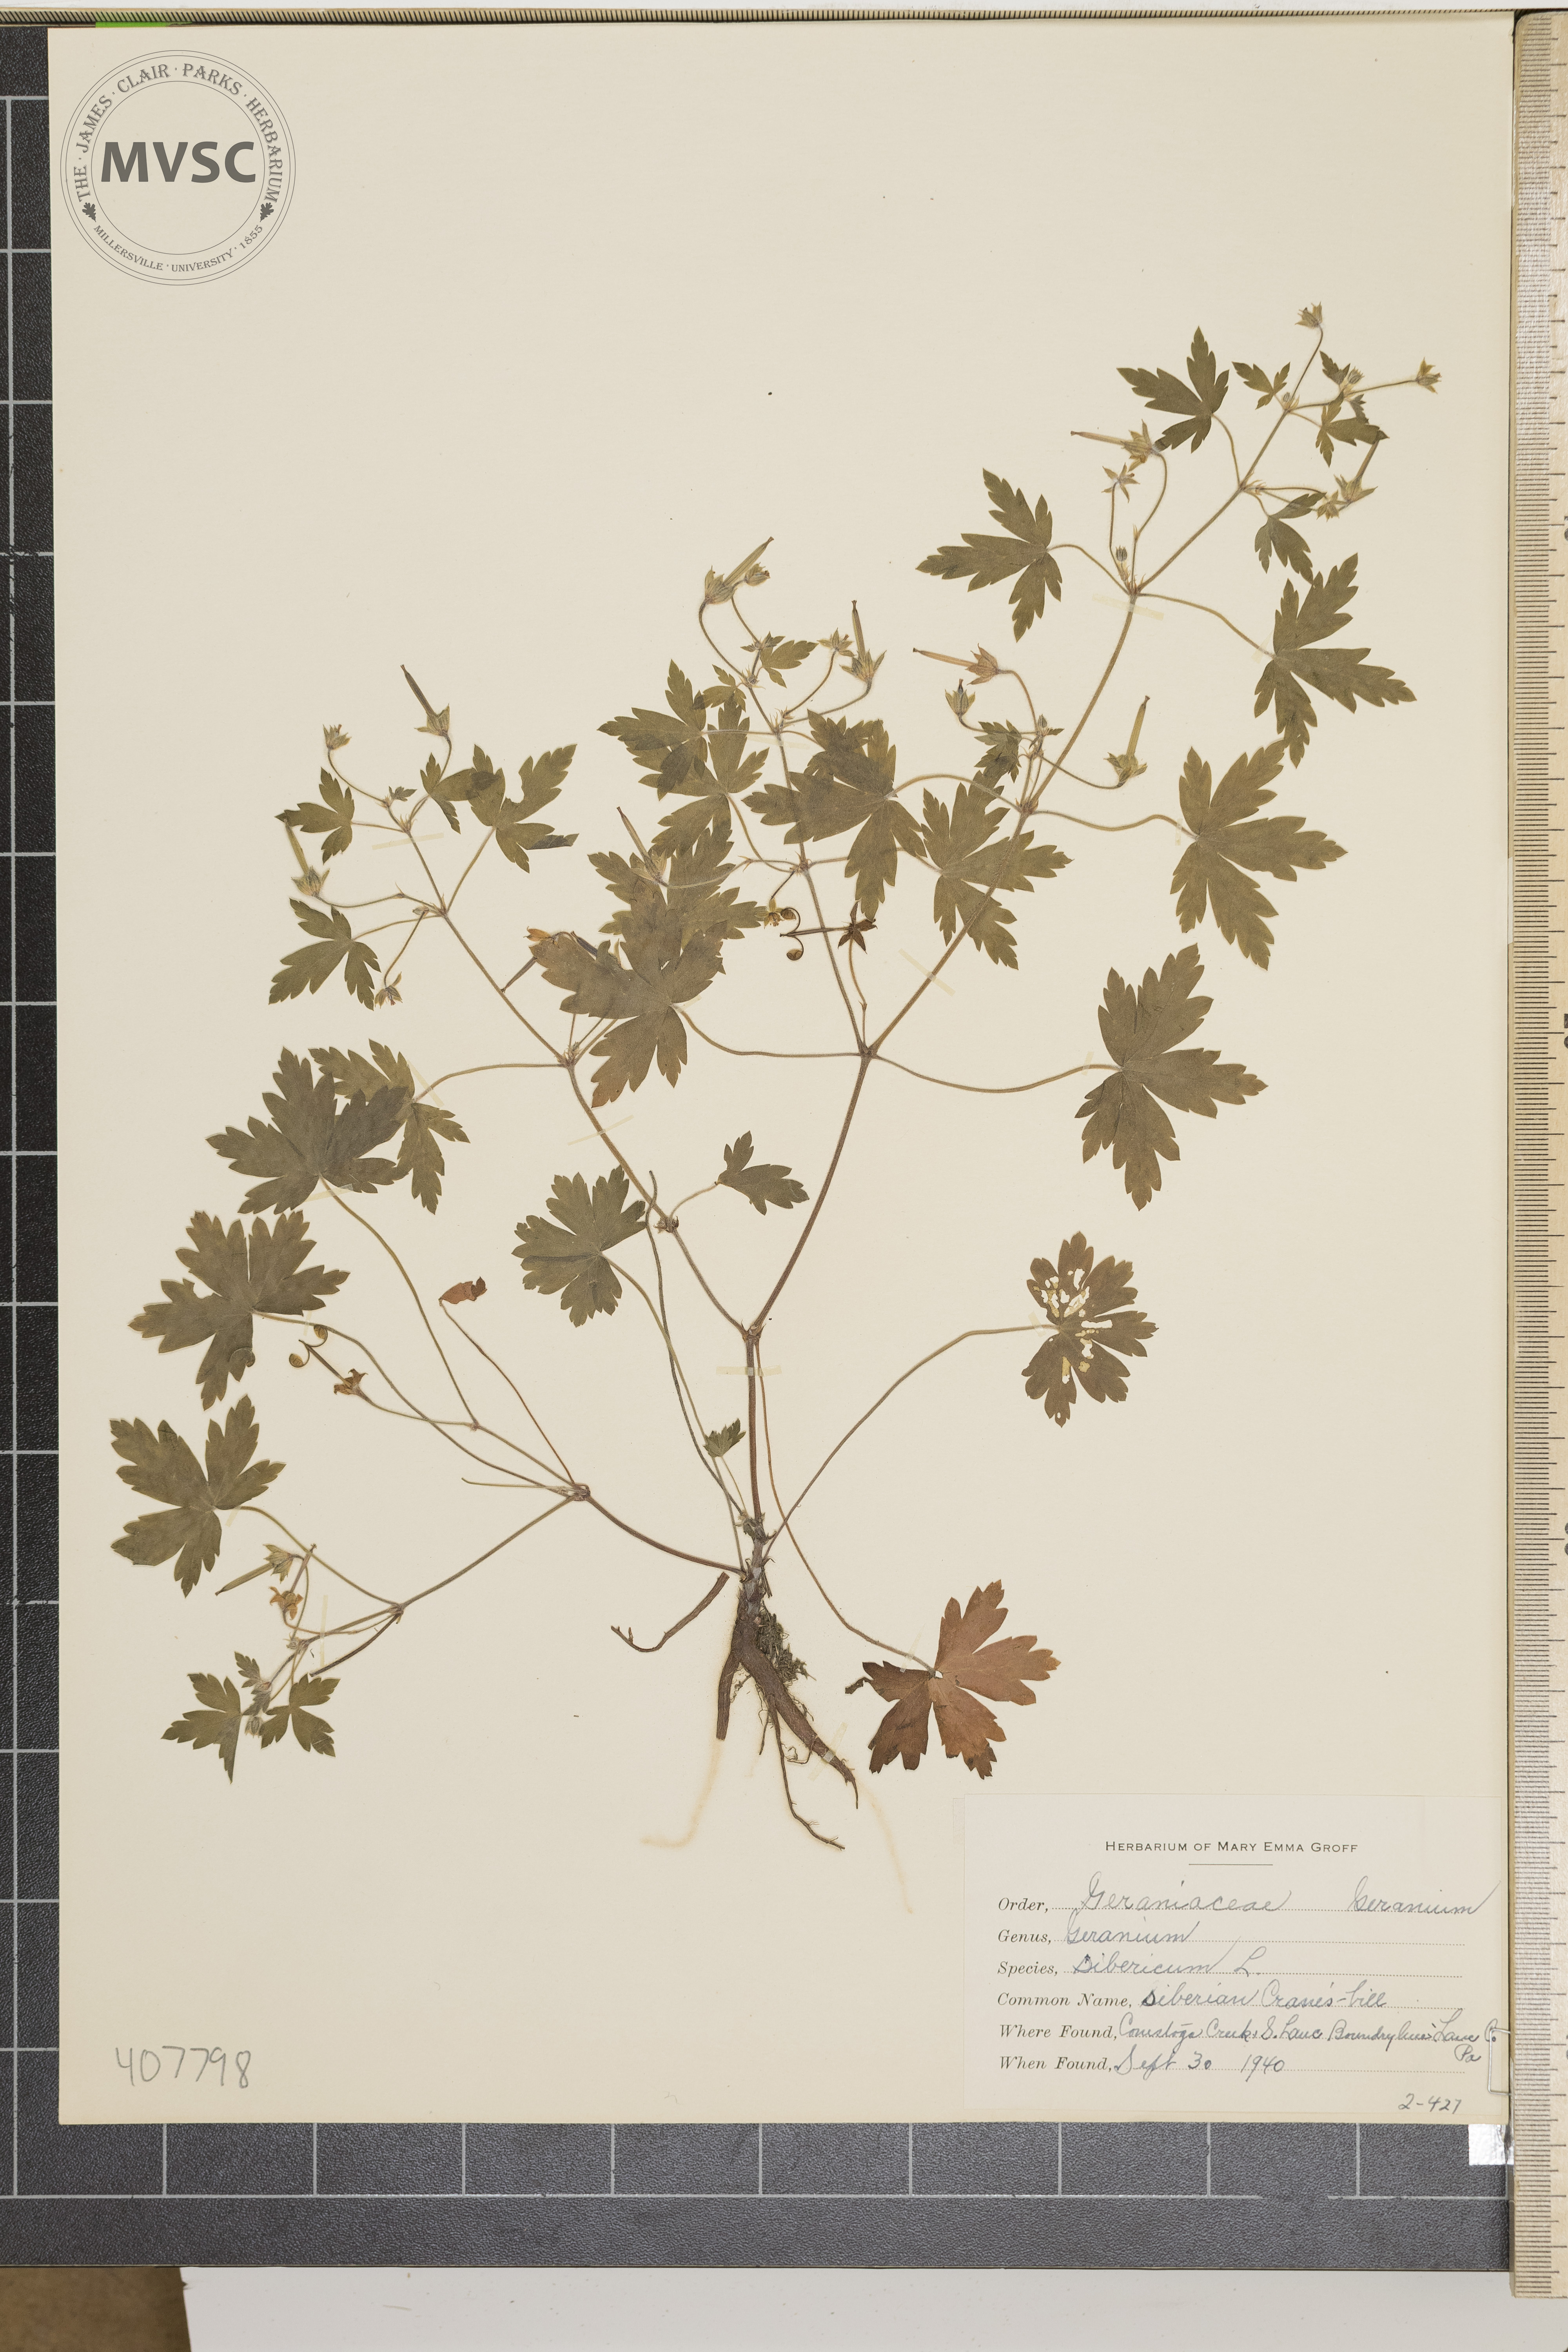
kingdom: Plantae
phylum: Tracheophyta
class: Magnoliopsida
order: Geraniales
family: Geraniaceae
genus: Geranium
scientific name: Geranium sibiricum
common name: Siberian crane's-bill
